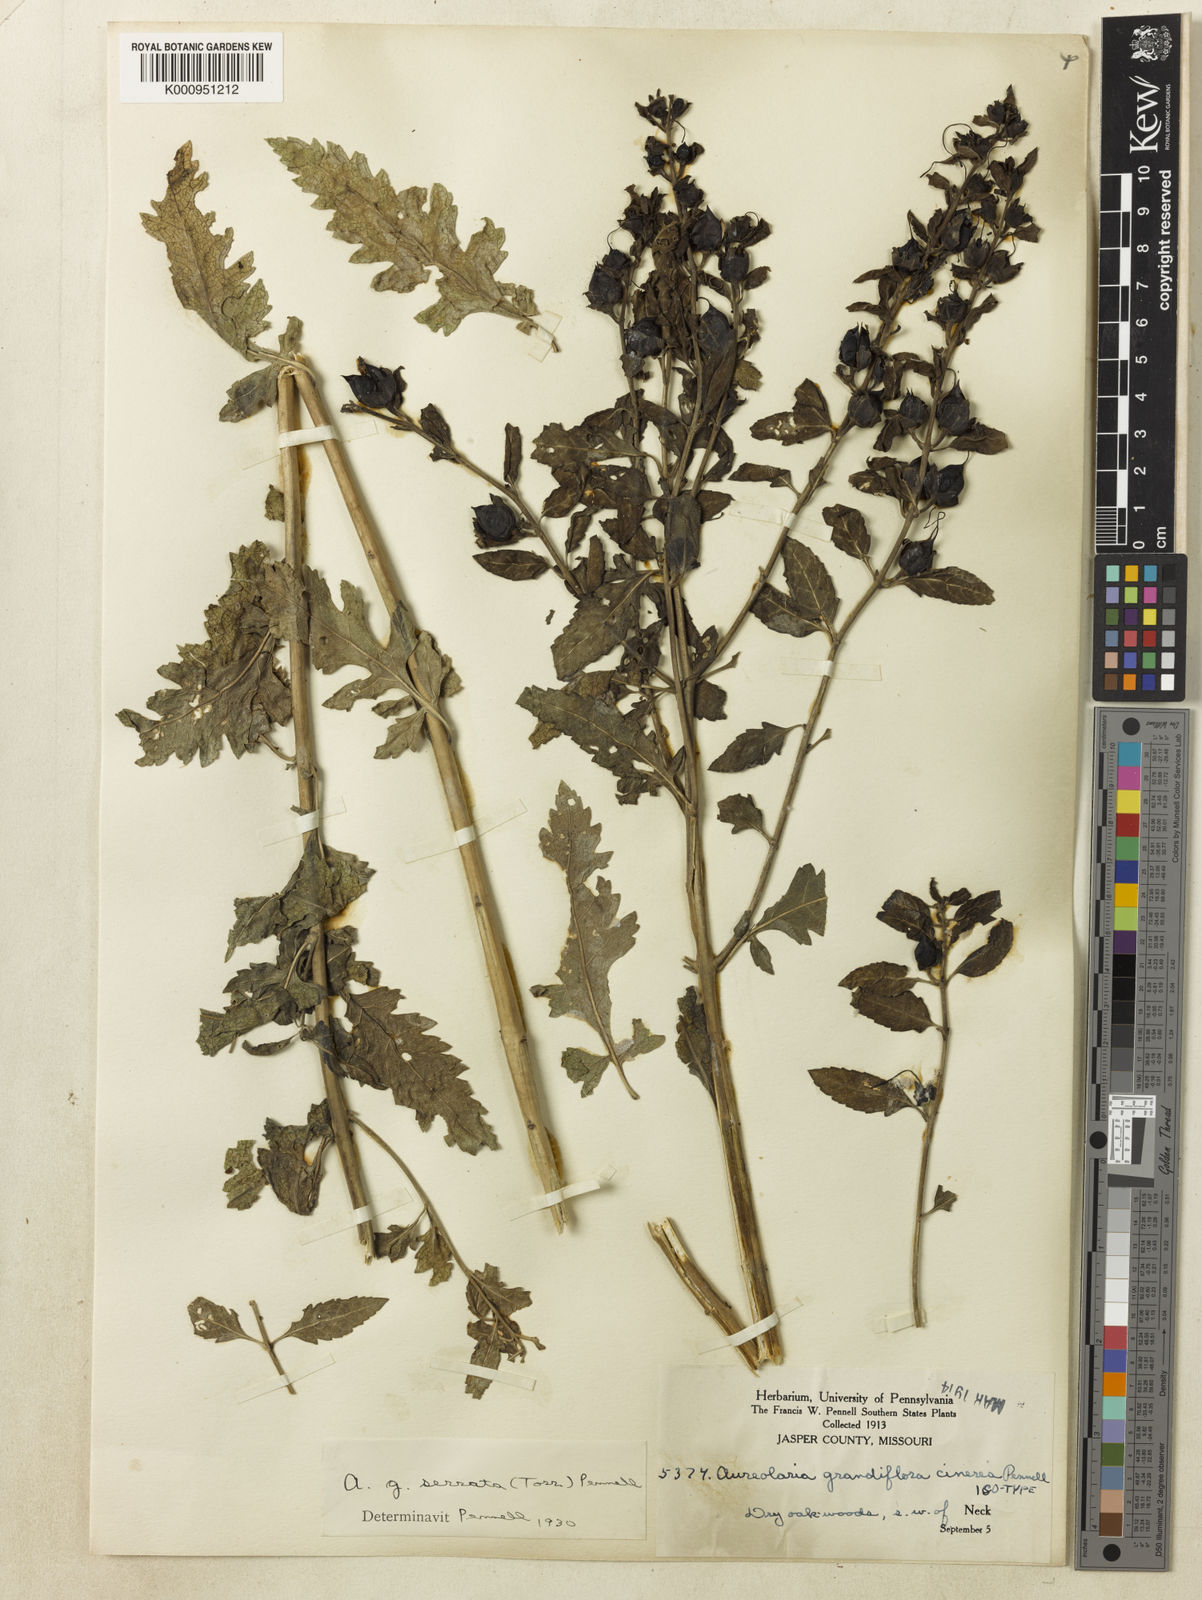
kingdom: Plantae
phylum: Tracheophyta
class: Magnoliopsida
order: Lamiales
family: Orobanchaceae
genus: Aureolaria
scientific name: Aureolaria grandiflora
